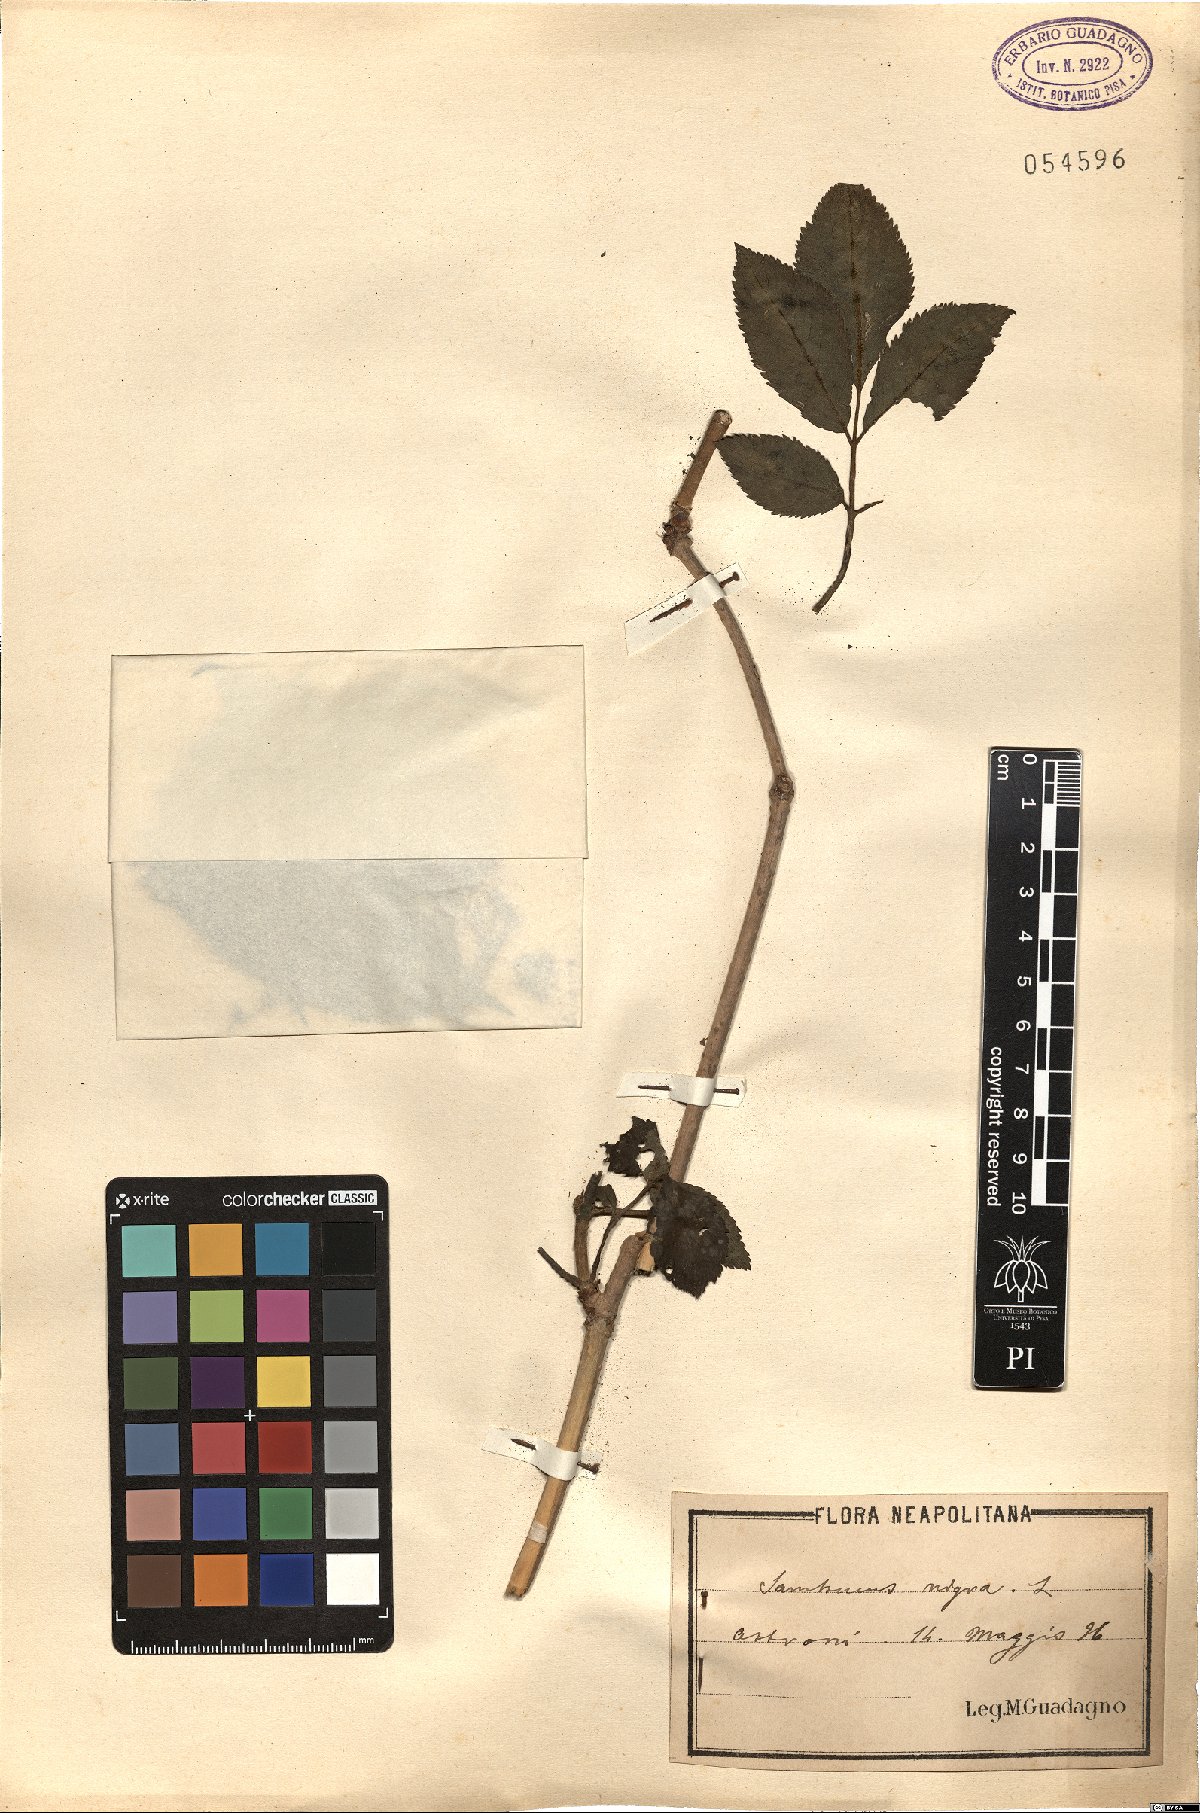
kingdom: Plantae
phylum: Tracheophyta
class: Magnoliopsida
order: Dipsacales
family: Viburnaceae
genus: Sambucus
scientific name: Sambucus nigra
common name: Elder
